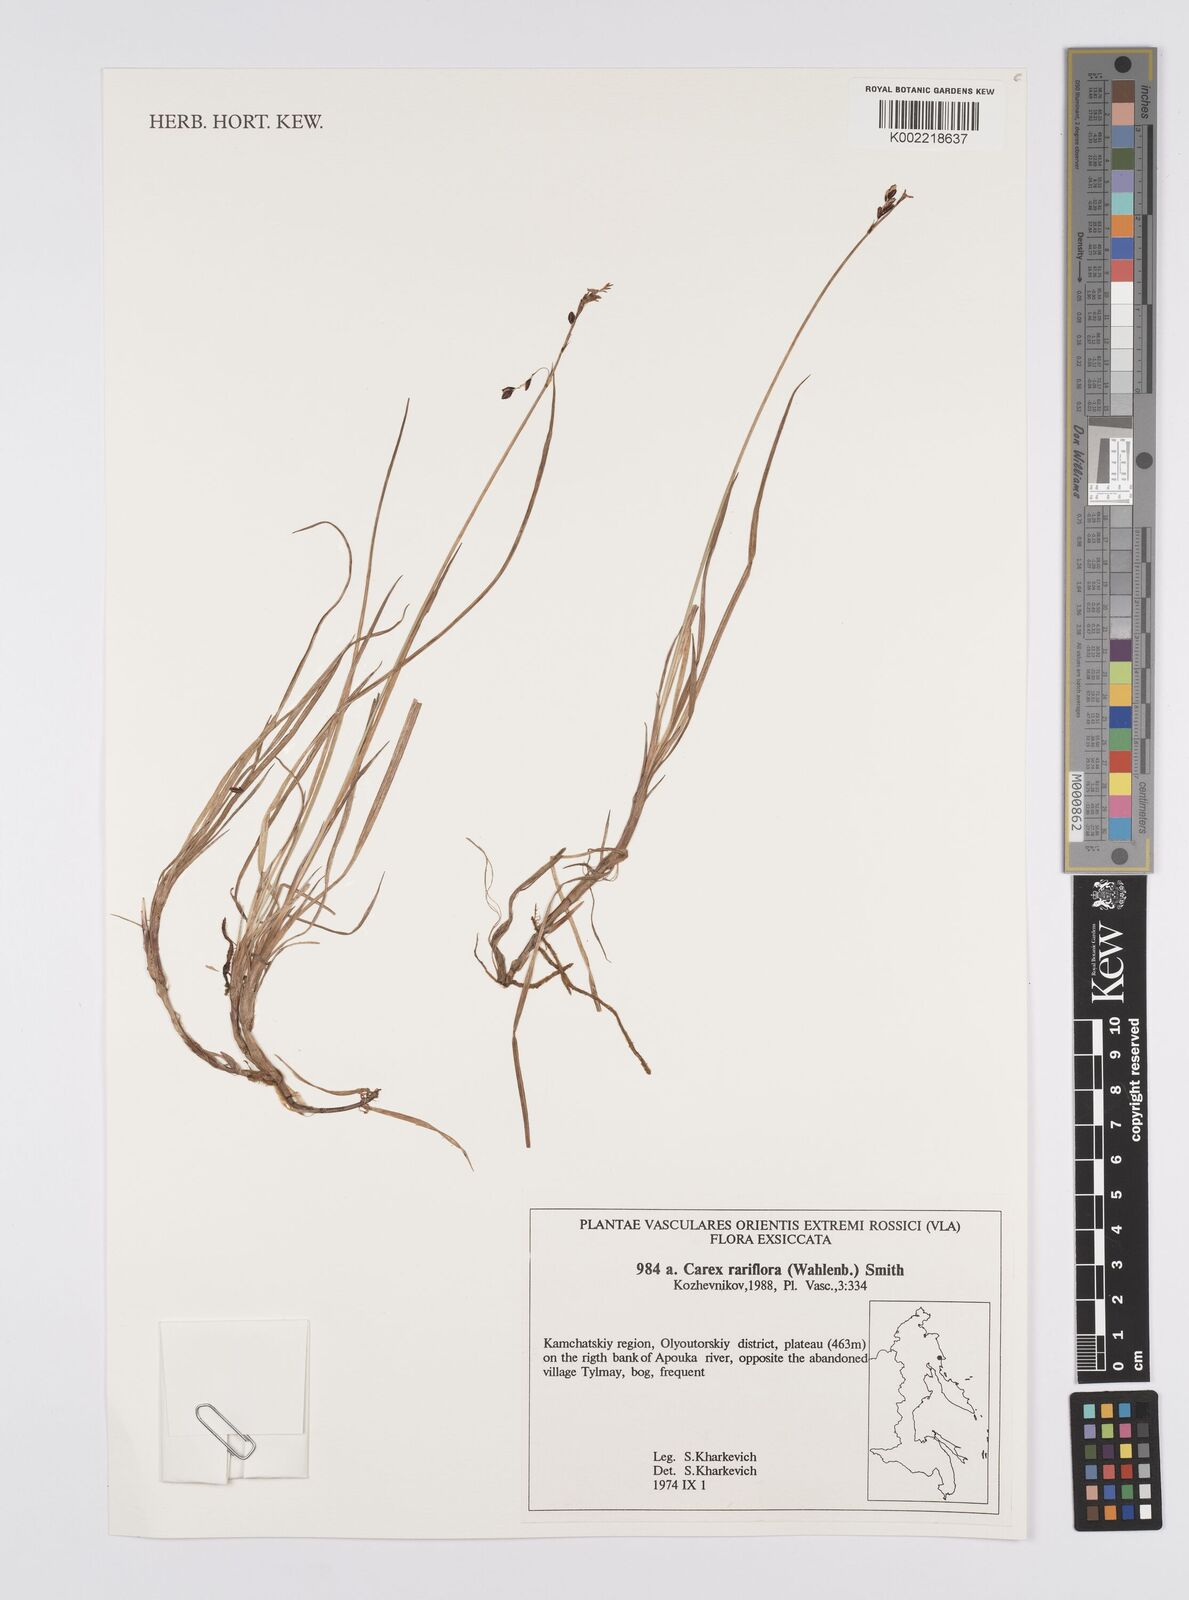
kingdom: Plantae
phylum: Tracheophyta
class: Liliopsida
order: Poales
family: Cyperaceae
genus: Carex
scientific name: Carex rariflora
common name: Loose-flowered alpine sedge
